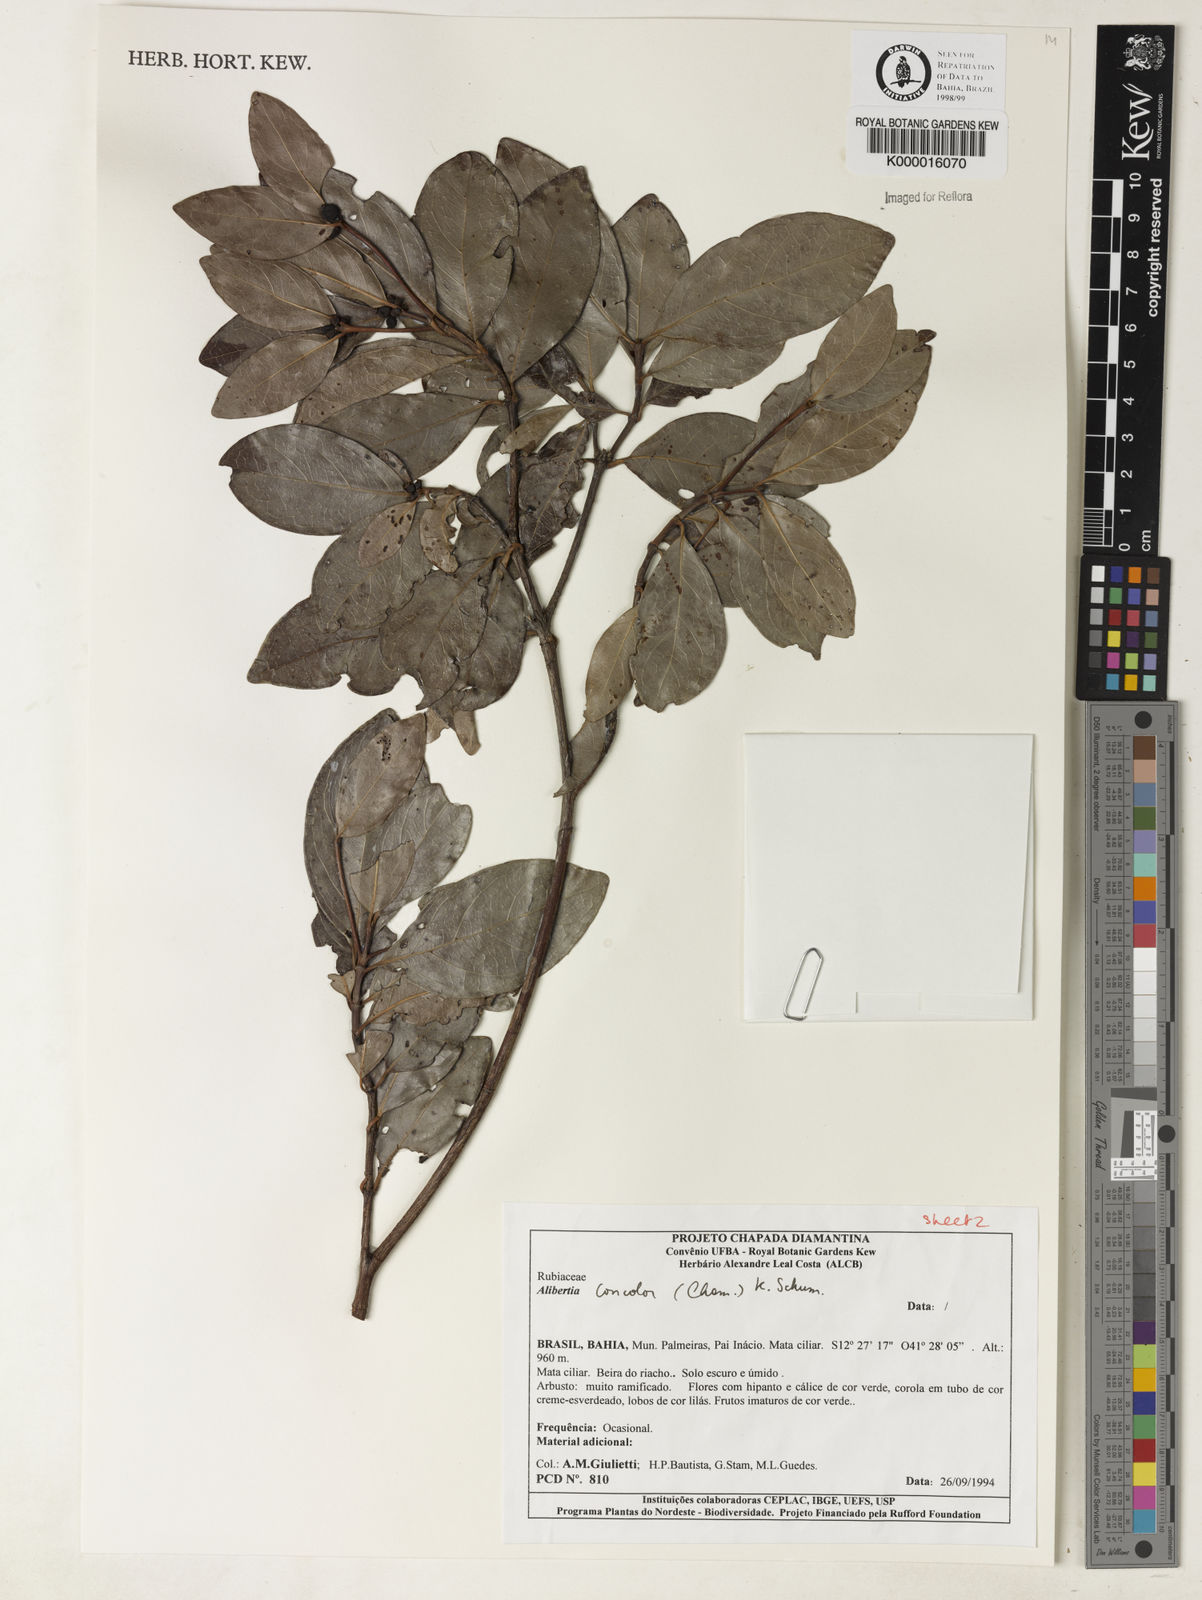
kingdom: Plantae
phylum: Tracheophyta
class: Magnoliopsida
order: Gentianales
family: Rubiaceae
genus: Cordiera
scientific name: Cordiera concolor
